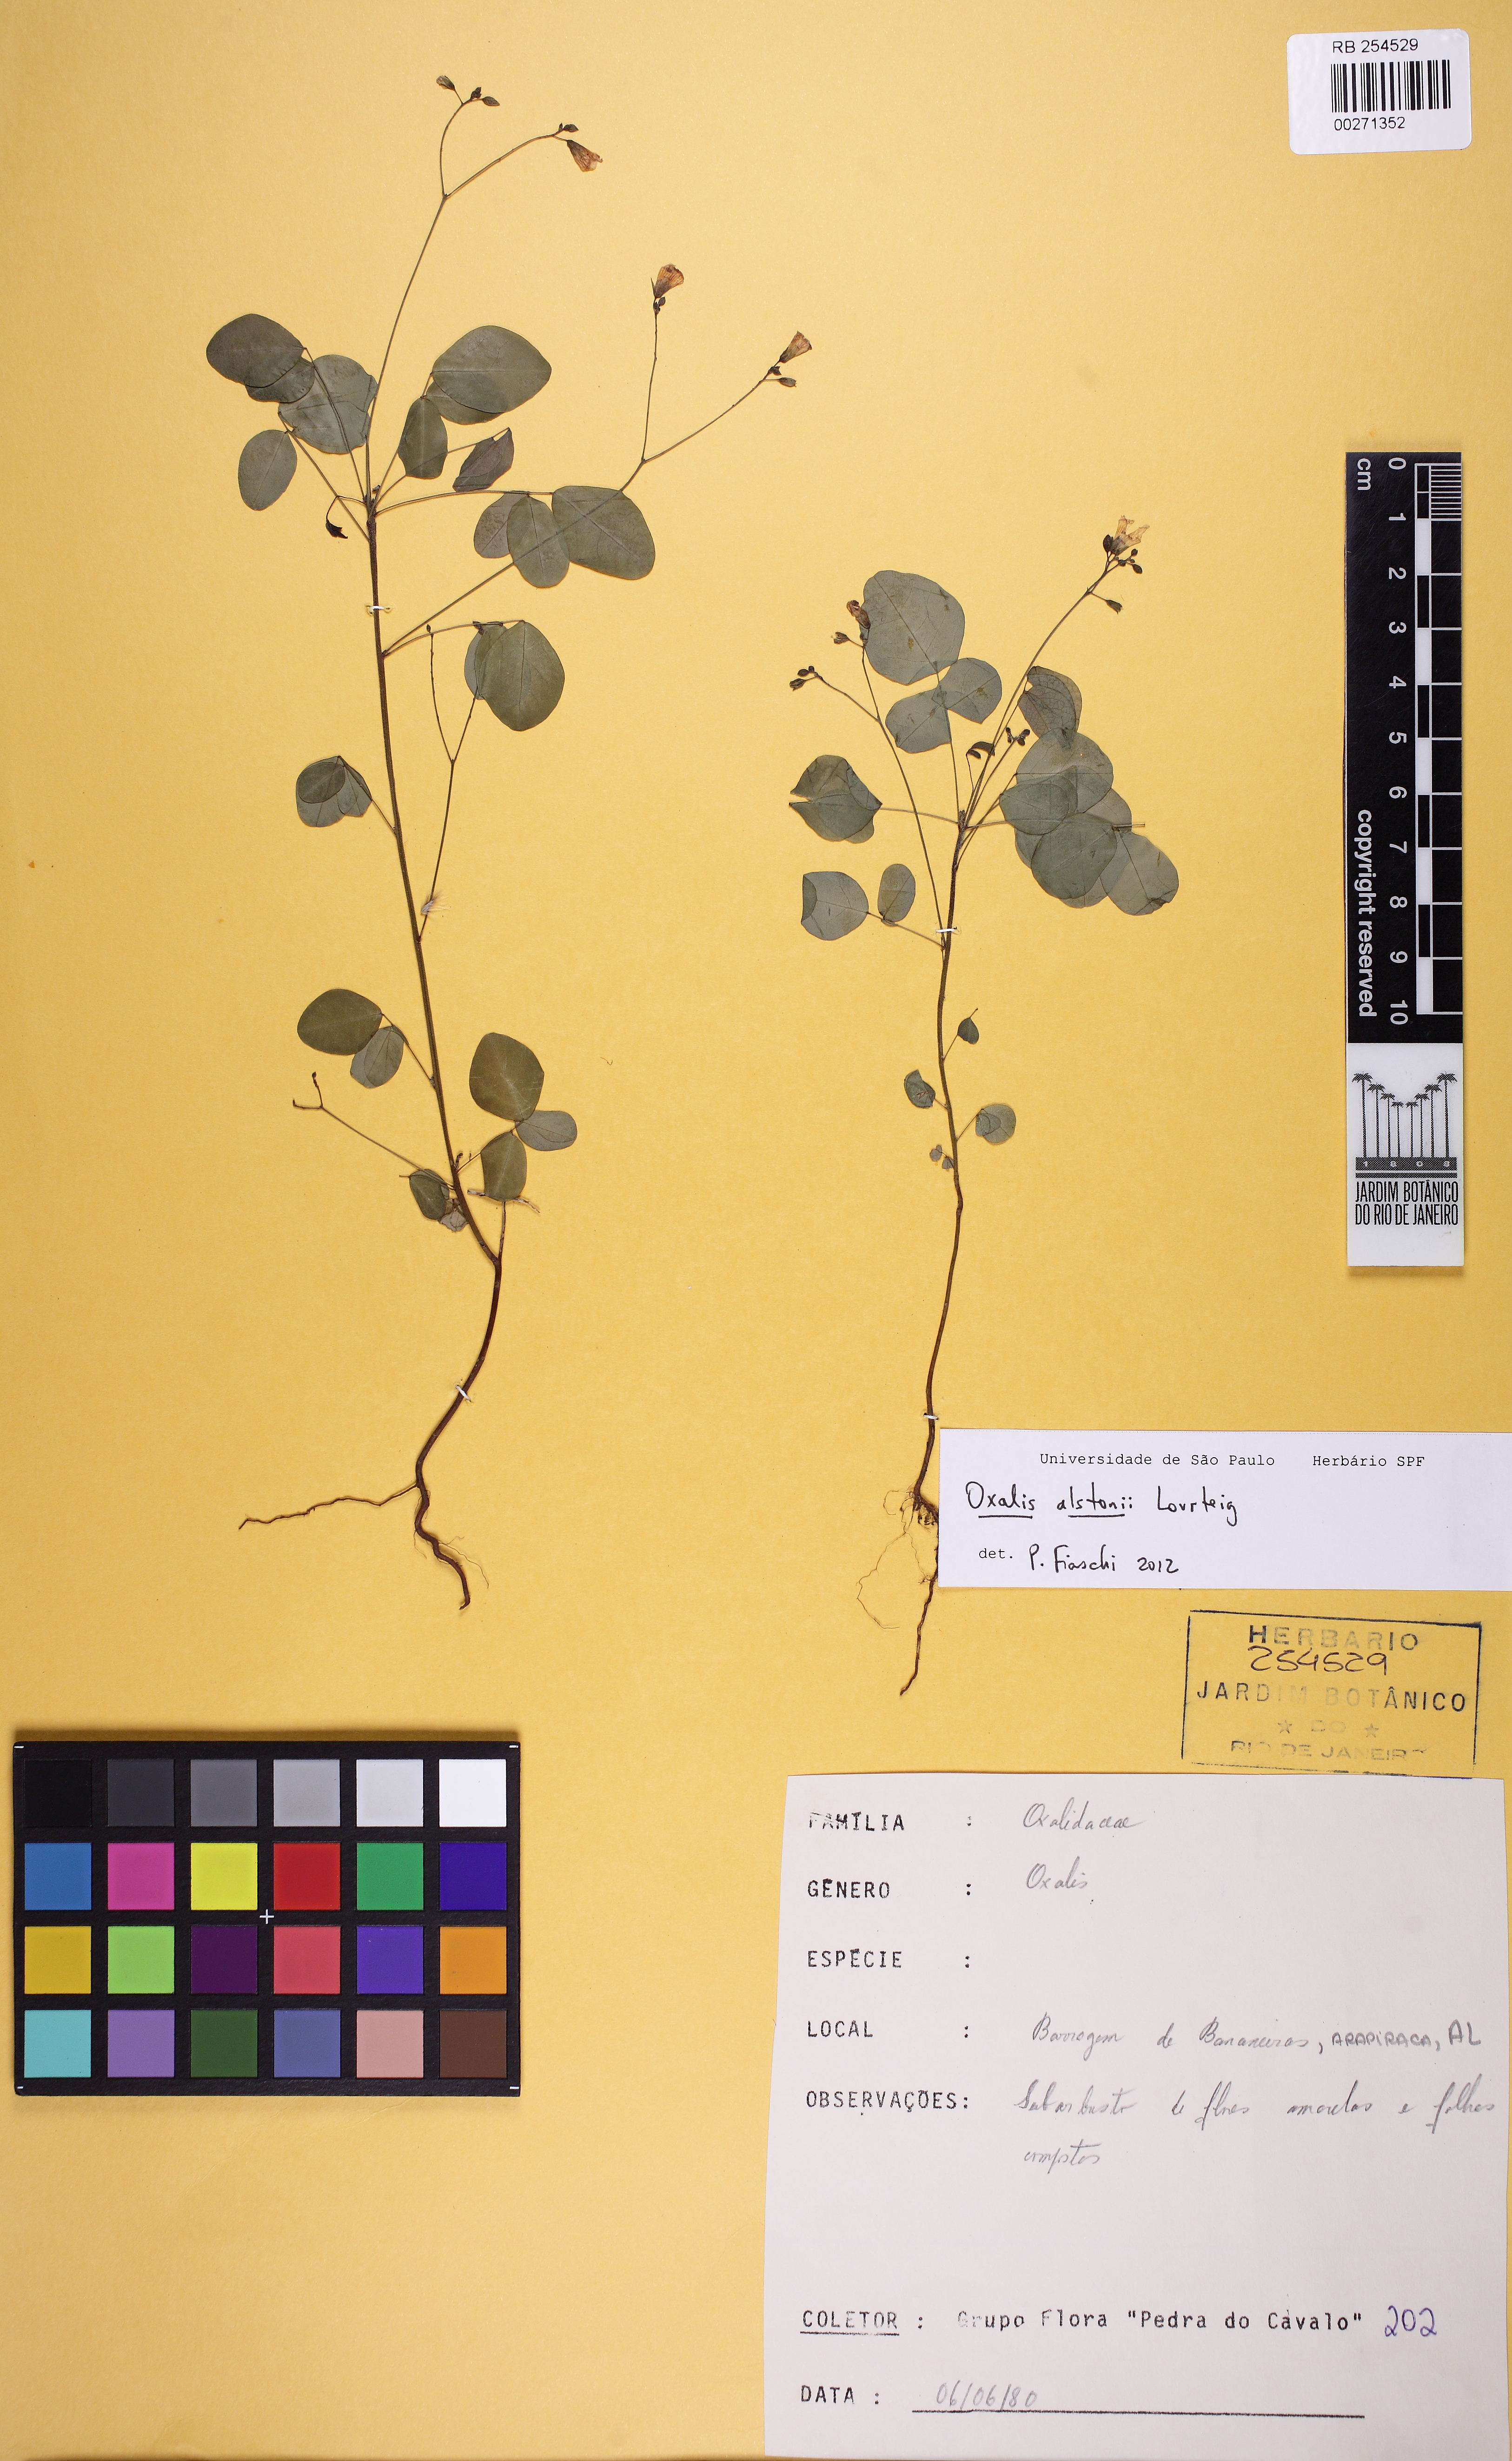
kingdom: Plantae
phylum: Tracheophyta
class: Magnoliopsida
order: Oxalidales
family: Oxalidaceae
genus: Oxalis
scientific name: Oxalis alstonii
